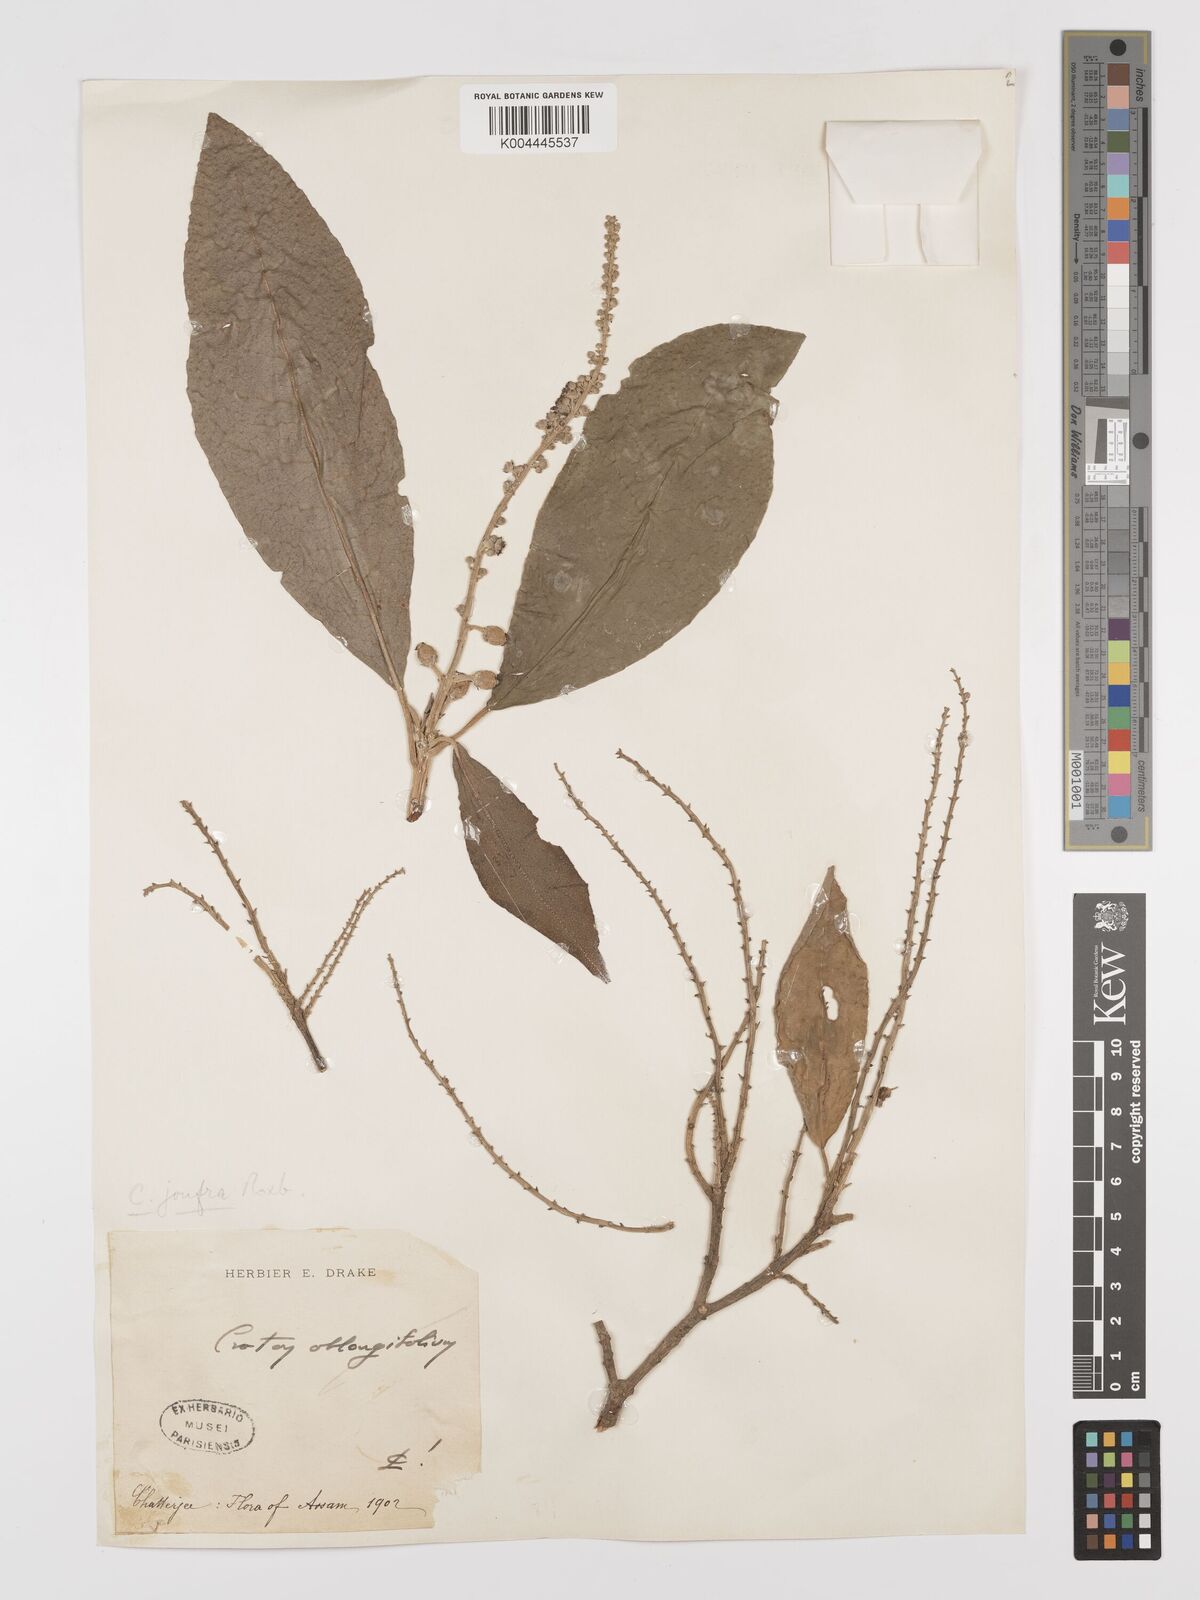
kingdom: Plantae
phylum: Tracheophyta
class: Magnoliopsida
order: Malpighiales
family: Euphorbiaceae
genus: Croton
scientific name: Croton joufra
